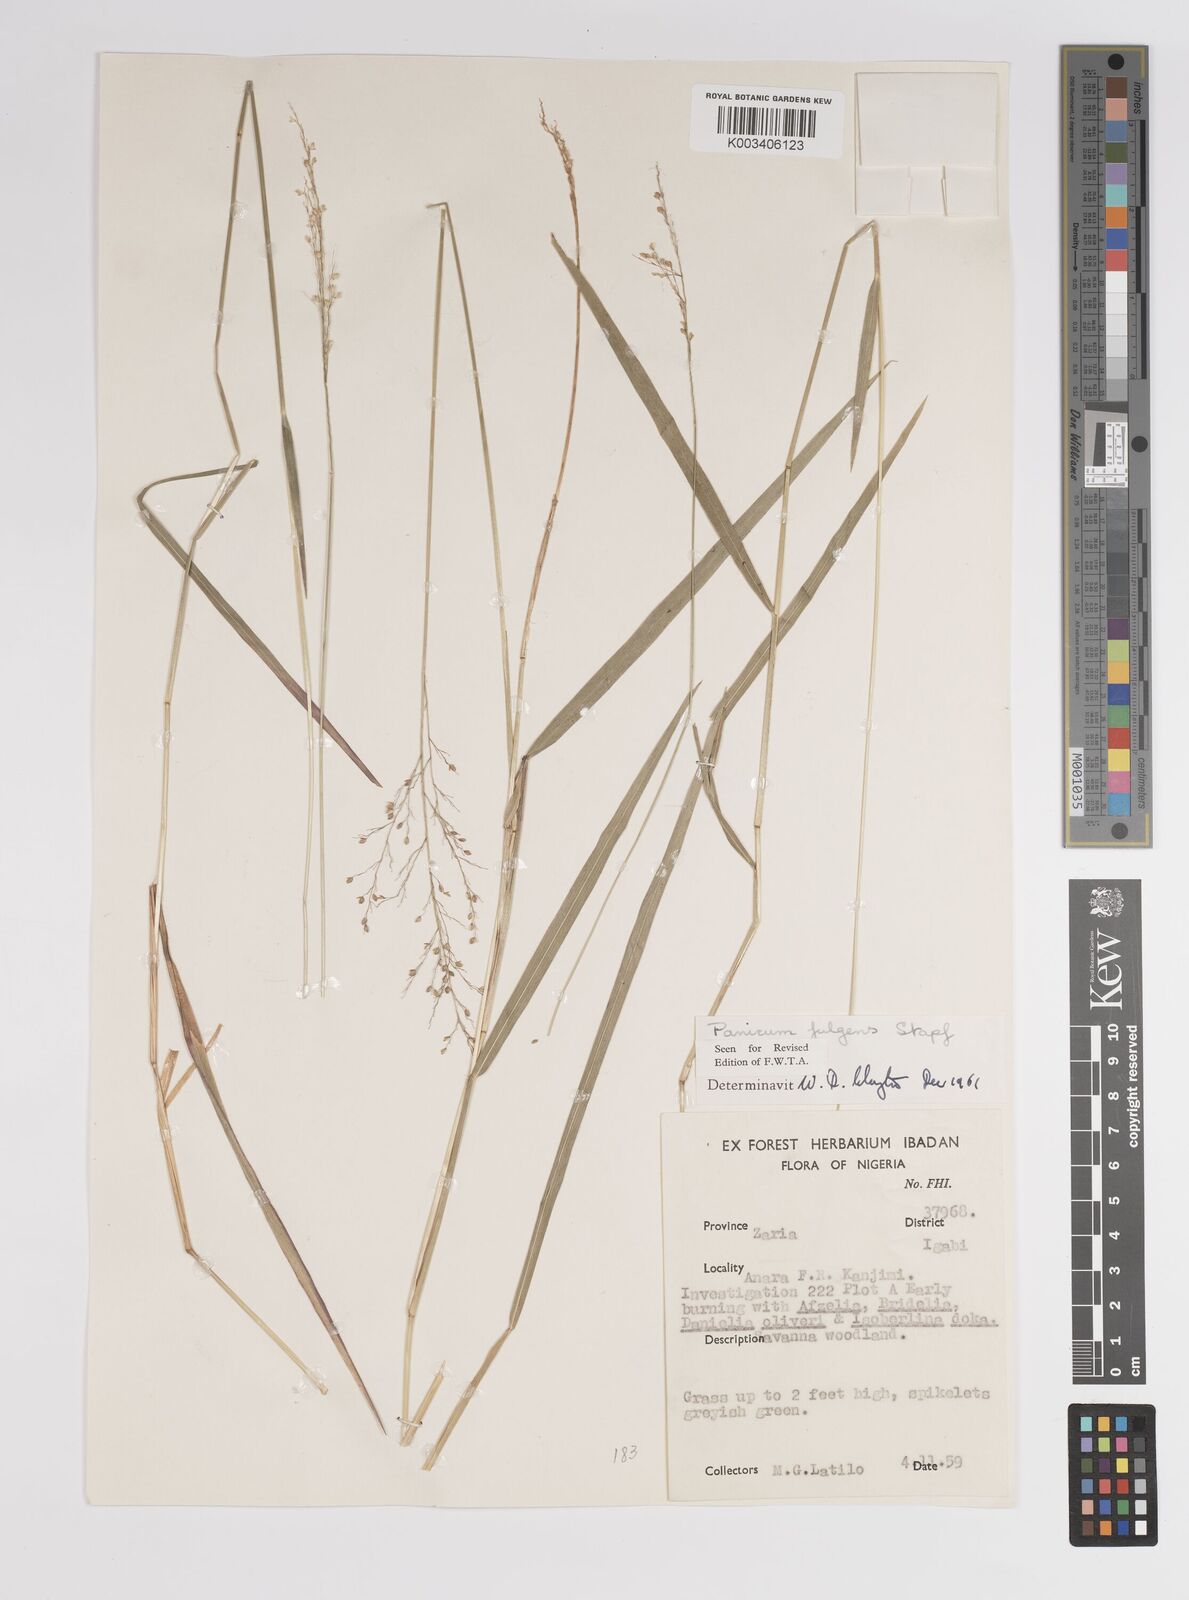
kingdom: Plantae
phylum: Tracheophyta
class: Liliopsida
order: Poales
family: Poaceae
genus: Trichanthecium
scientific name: Trichanthecium nervatum
